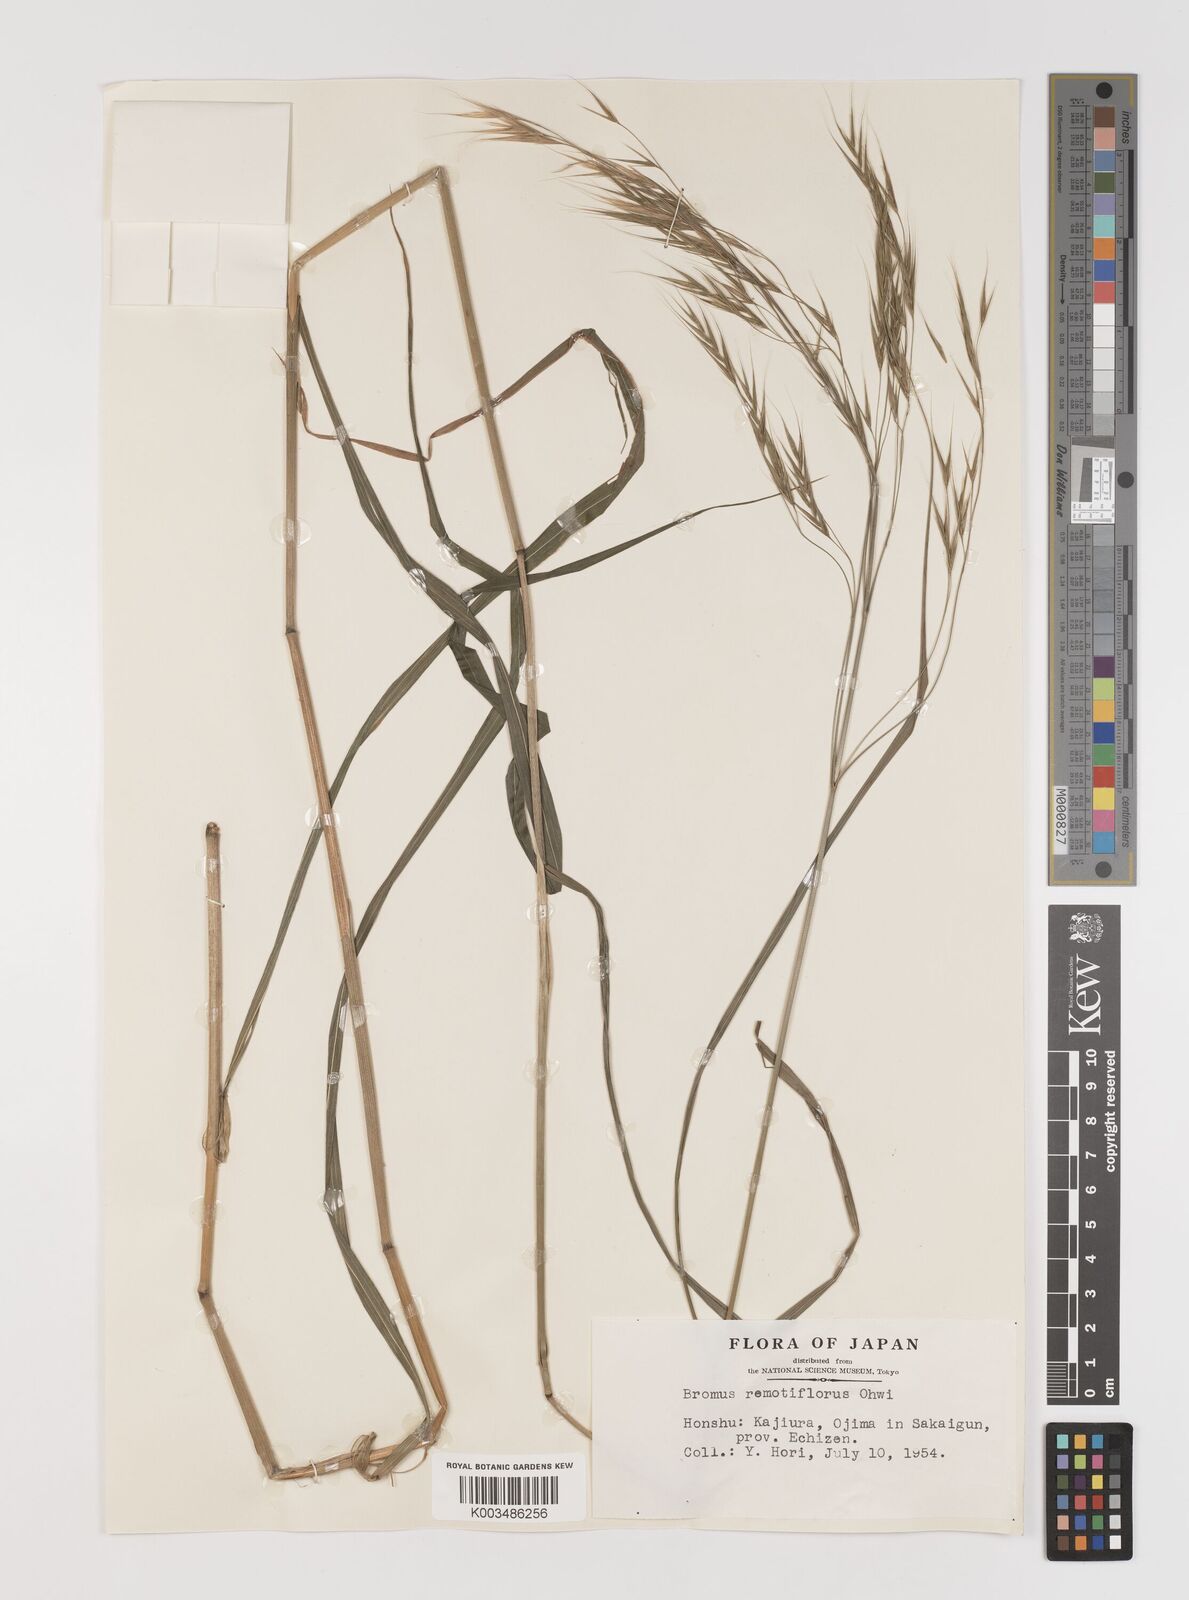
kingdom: Plantae
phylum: Tracheophyta
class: Liliopsida
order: Poales
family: Poaceae
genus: Bromus
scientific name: Bromus remotiflorus
